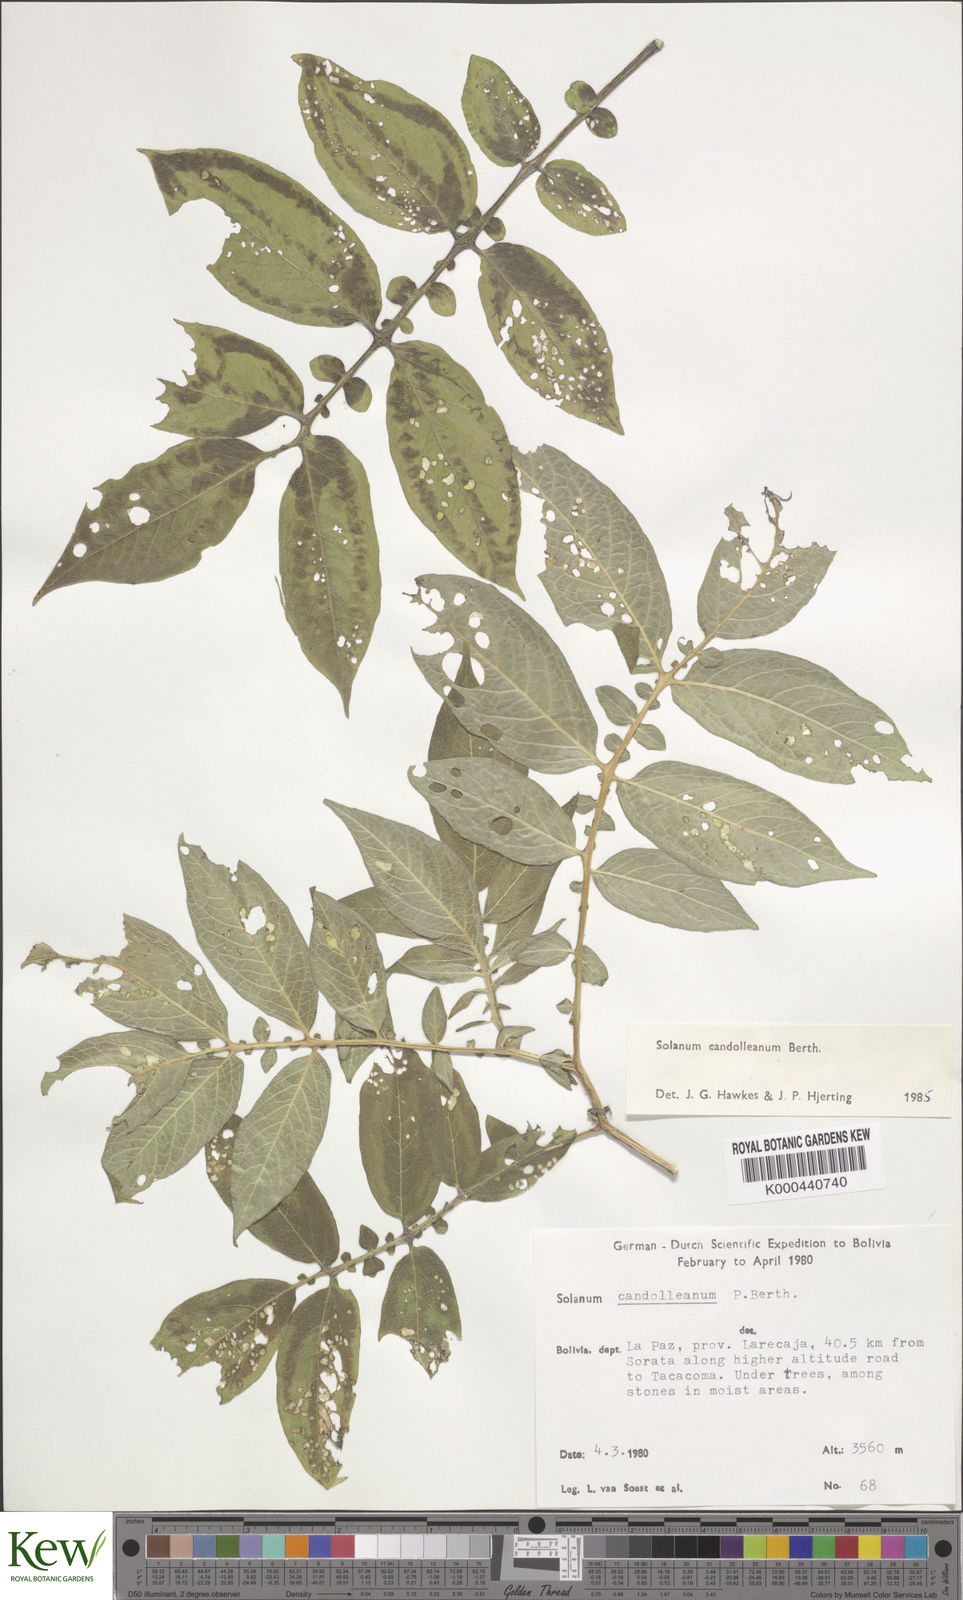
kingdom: Plantae
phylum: Tracheophyta
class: Magnoliopsida
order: Solanales
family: Solanaceae
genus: Solanum
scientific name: Solanum brevicaule
